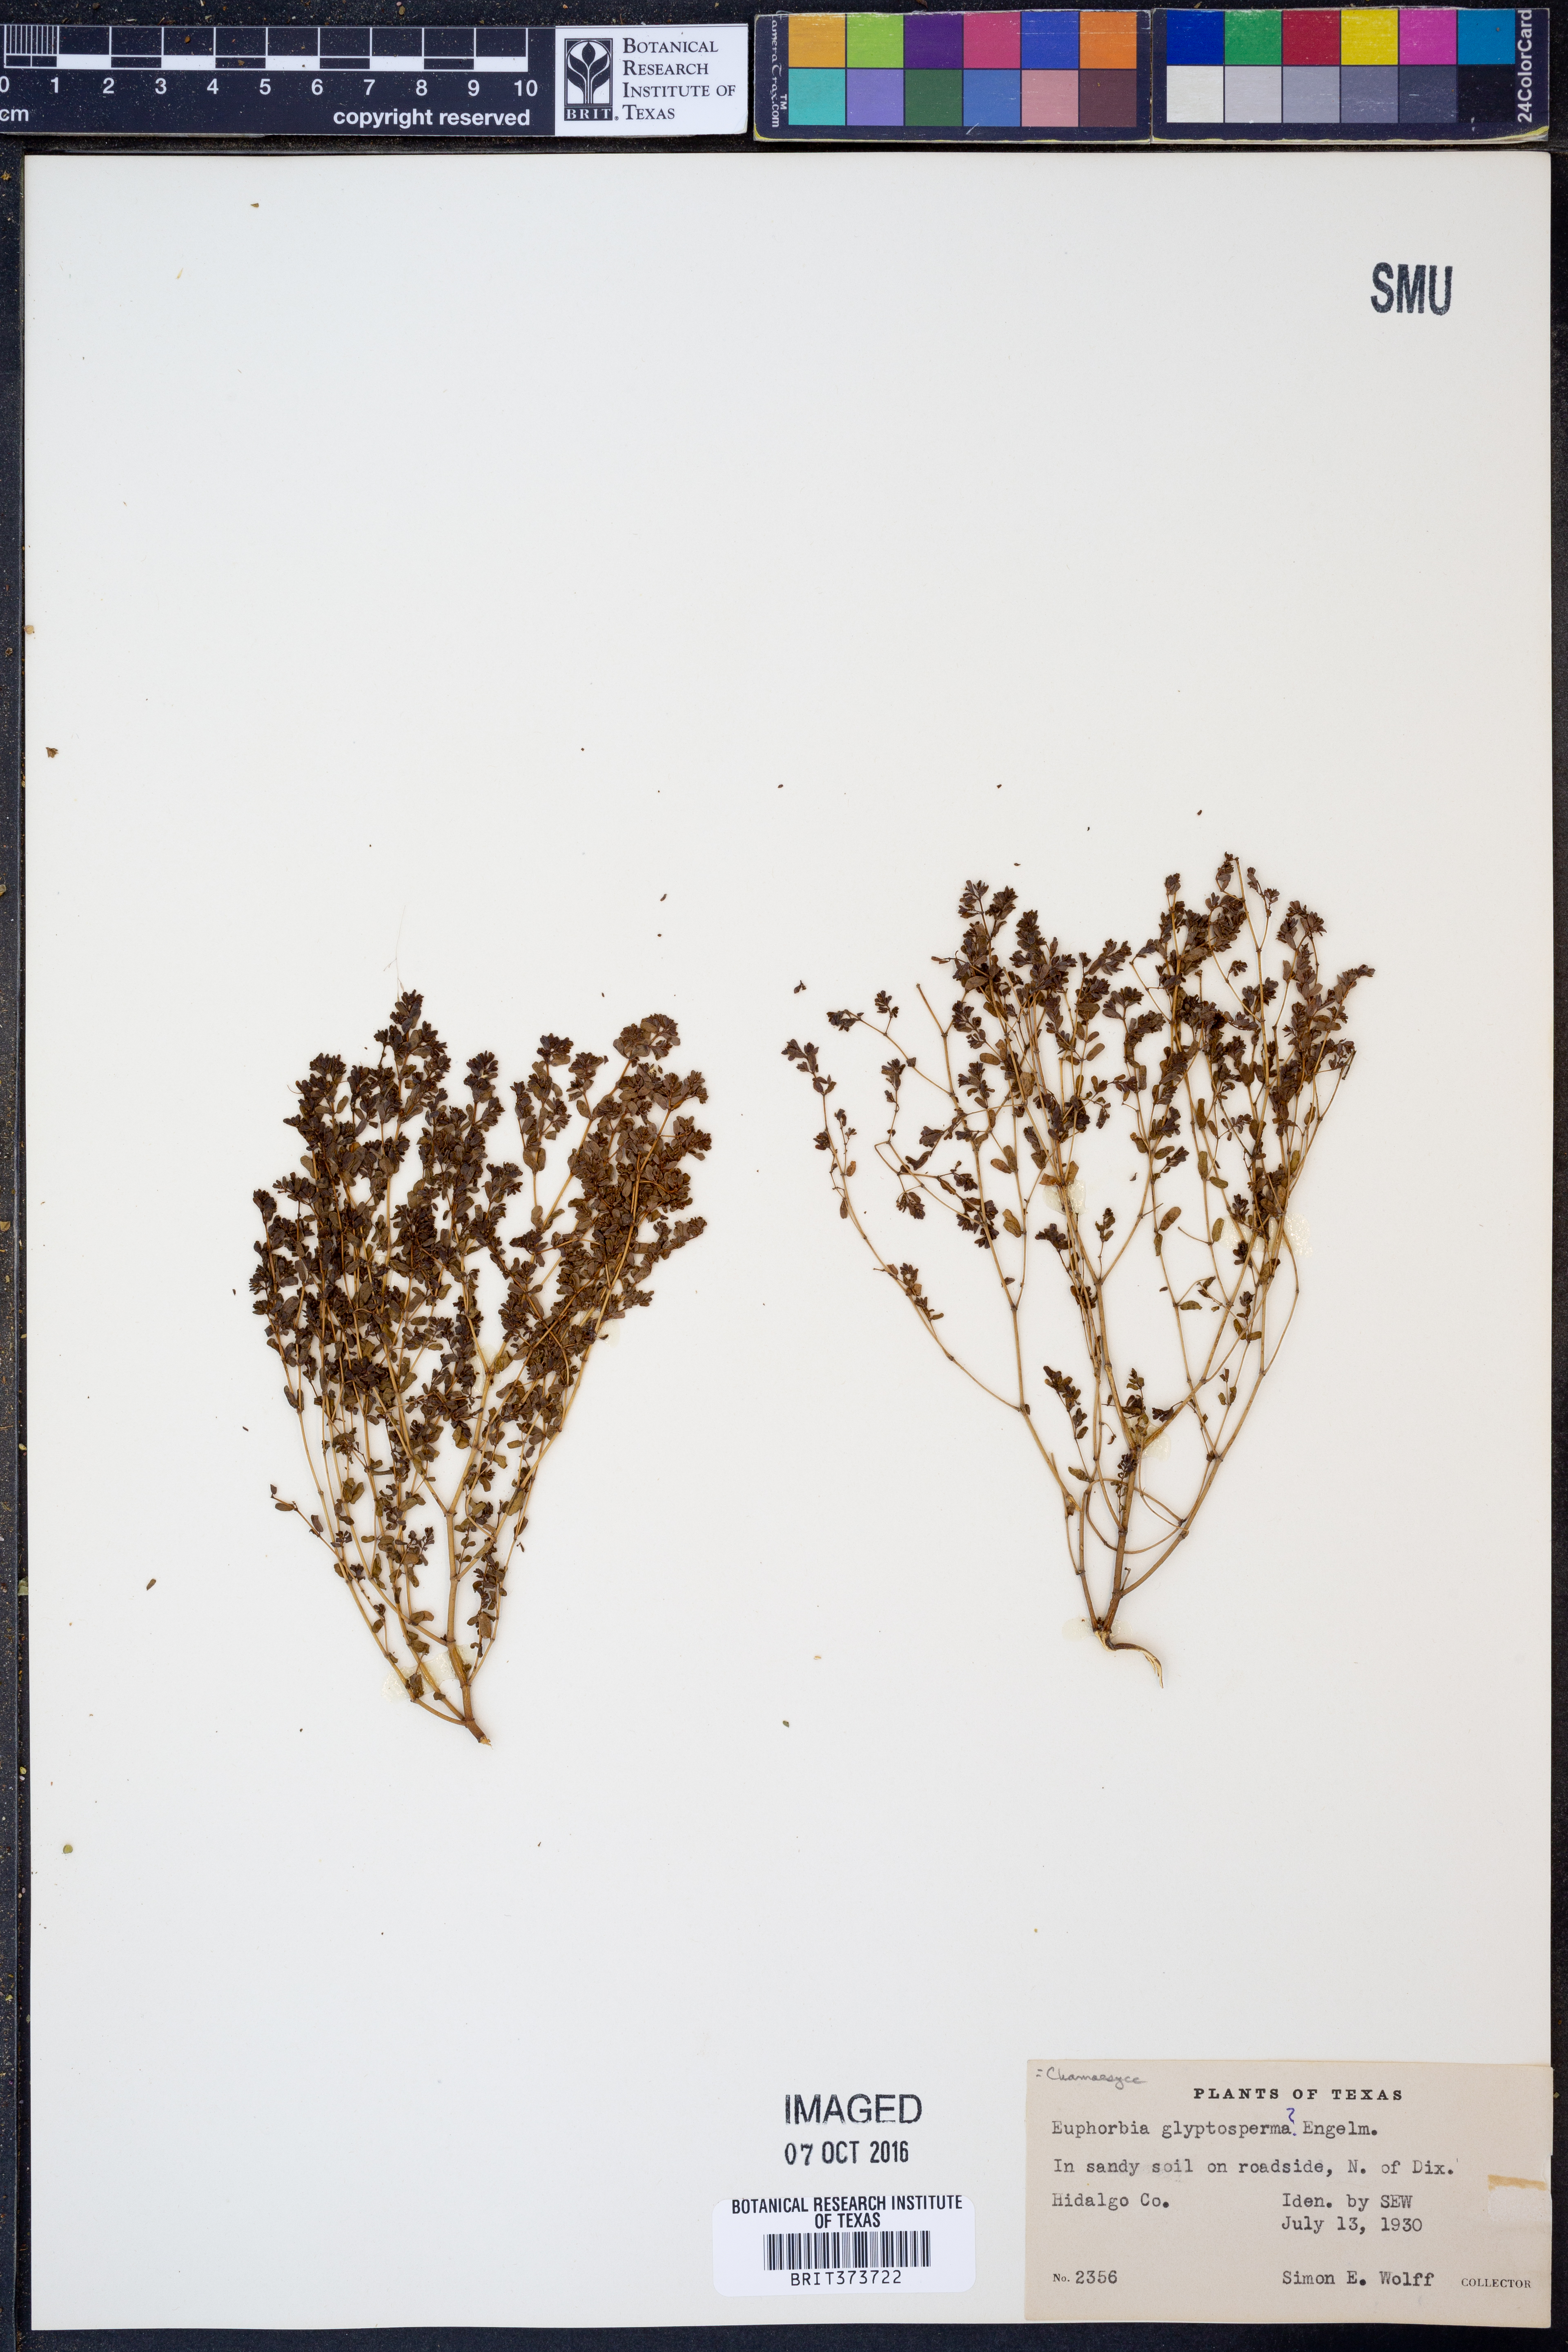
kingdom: Plantae
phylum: Tracheophyta
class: Magnoliopsida
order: Malpighiales
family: Euphorbiaceae
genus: Euphorbia
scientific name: Euphorbia glyptosperma
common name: Corrugate-seeded spurge
